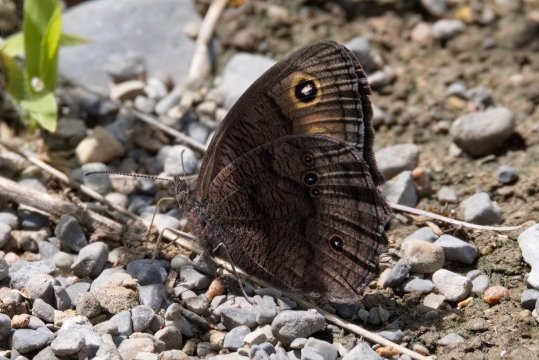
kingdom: Animalia
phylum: Arthropoda
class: Insecta
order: Lepidoptera
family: Nymphalidae
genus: Cercyonis
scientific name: Cercyonis pegala
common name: Common Wood-Nymph
